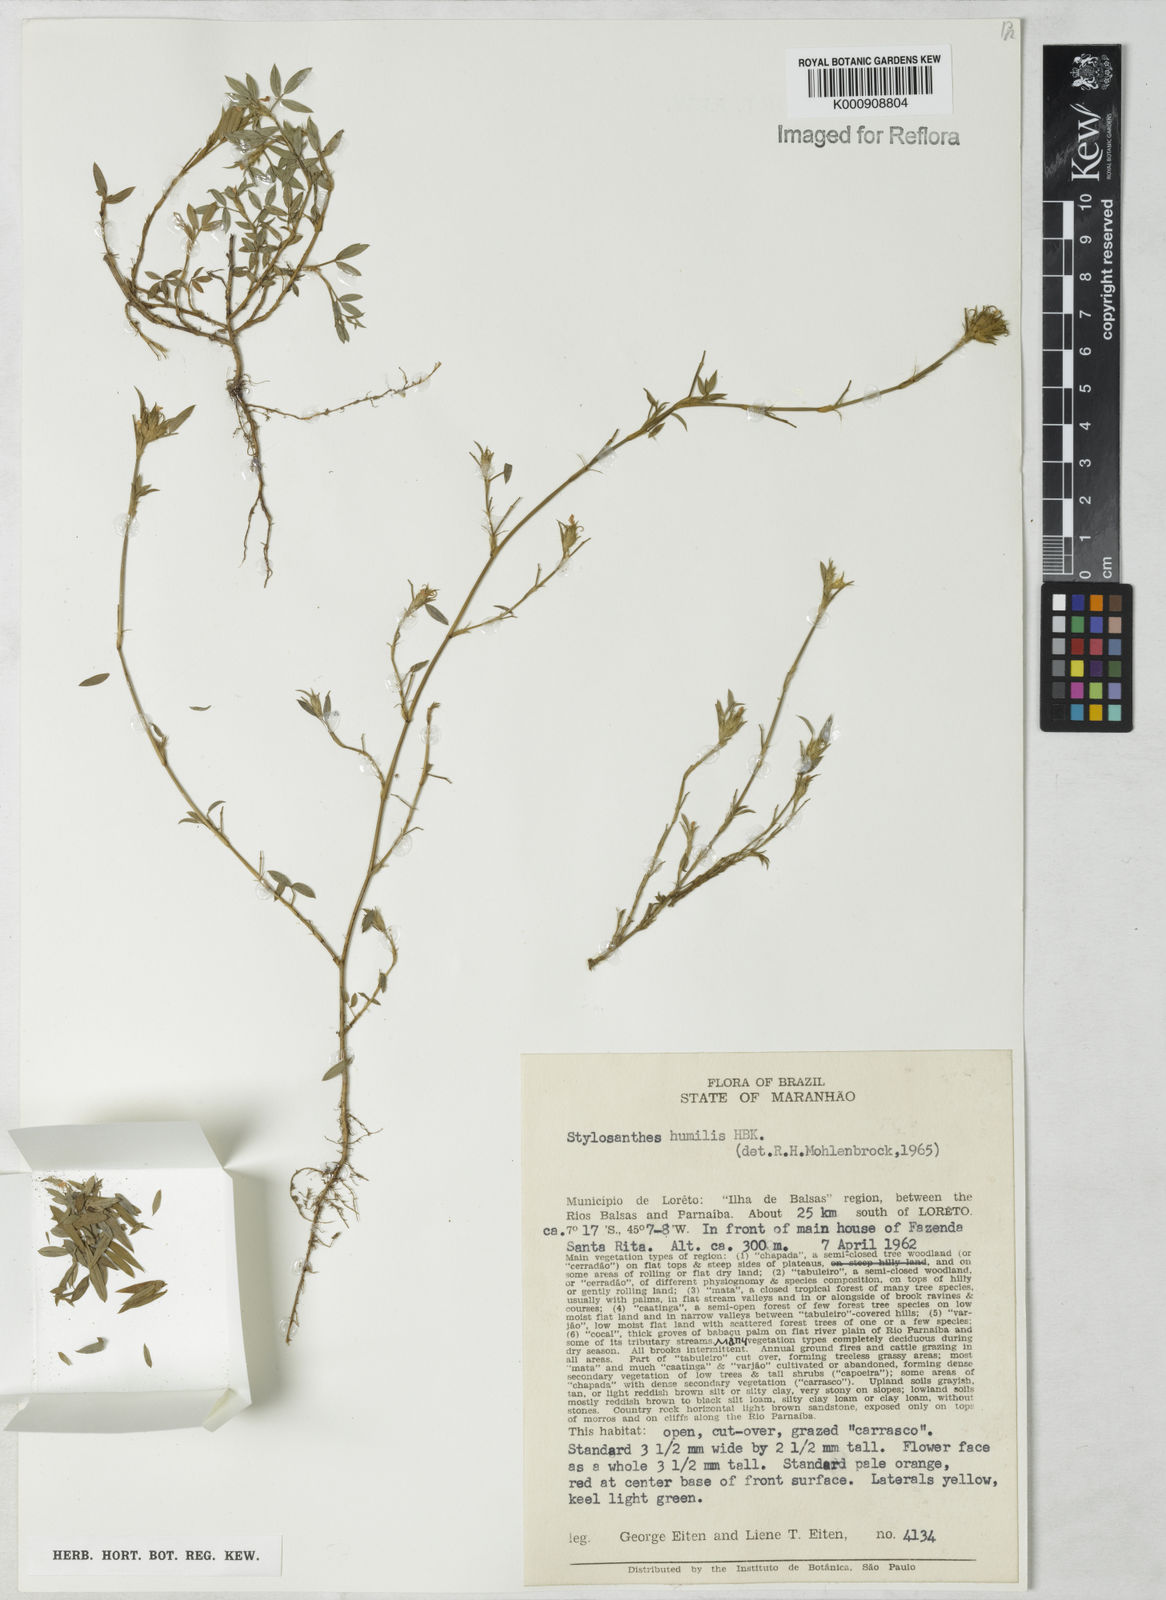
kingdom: Plantae
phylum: Tracheophyta
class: Magnoliopsida
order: Fabales
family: Fabaceae
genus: Stylosanthes
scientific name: Stylosanthes humilis
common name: Townsville stylo
